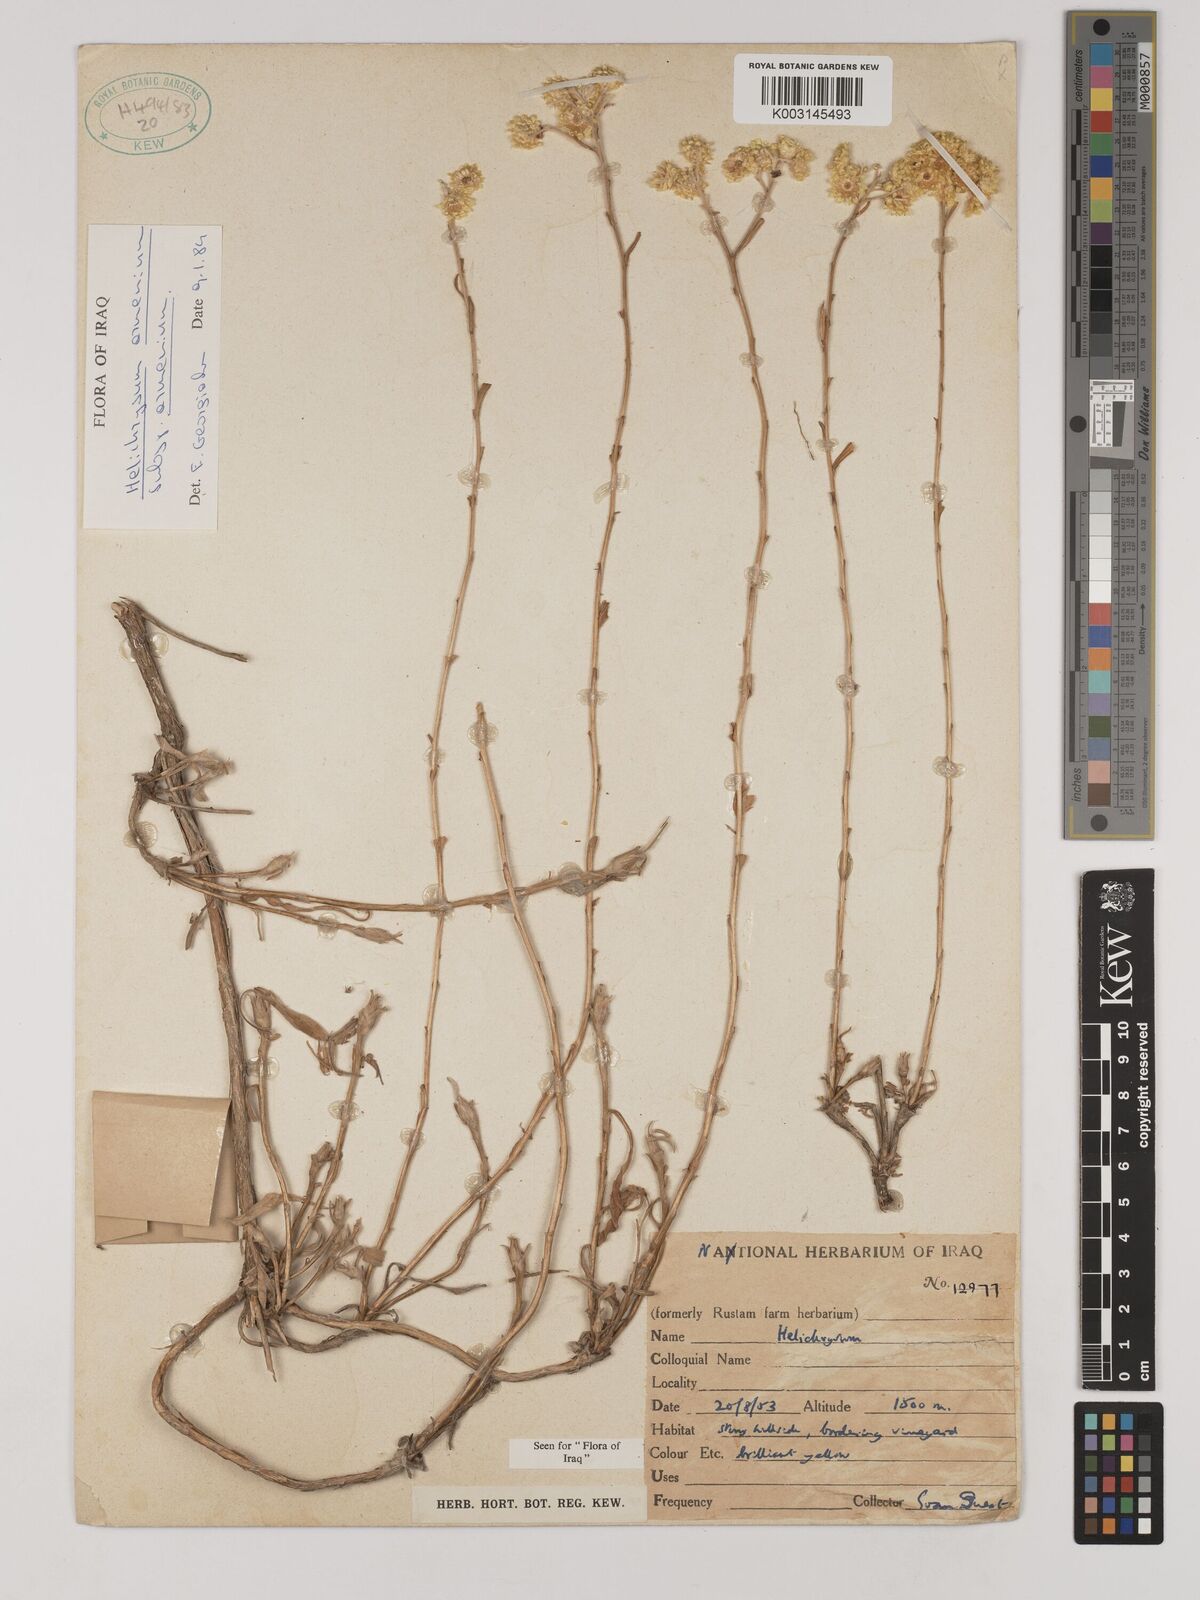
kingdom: Plantae
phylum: Tracheophyta
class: Magnoliopsida
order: Asterales
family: Asteraceae
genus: Helichrysum
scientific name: Helichrysum armenium
